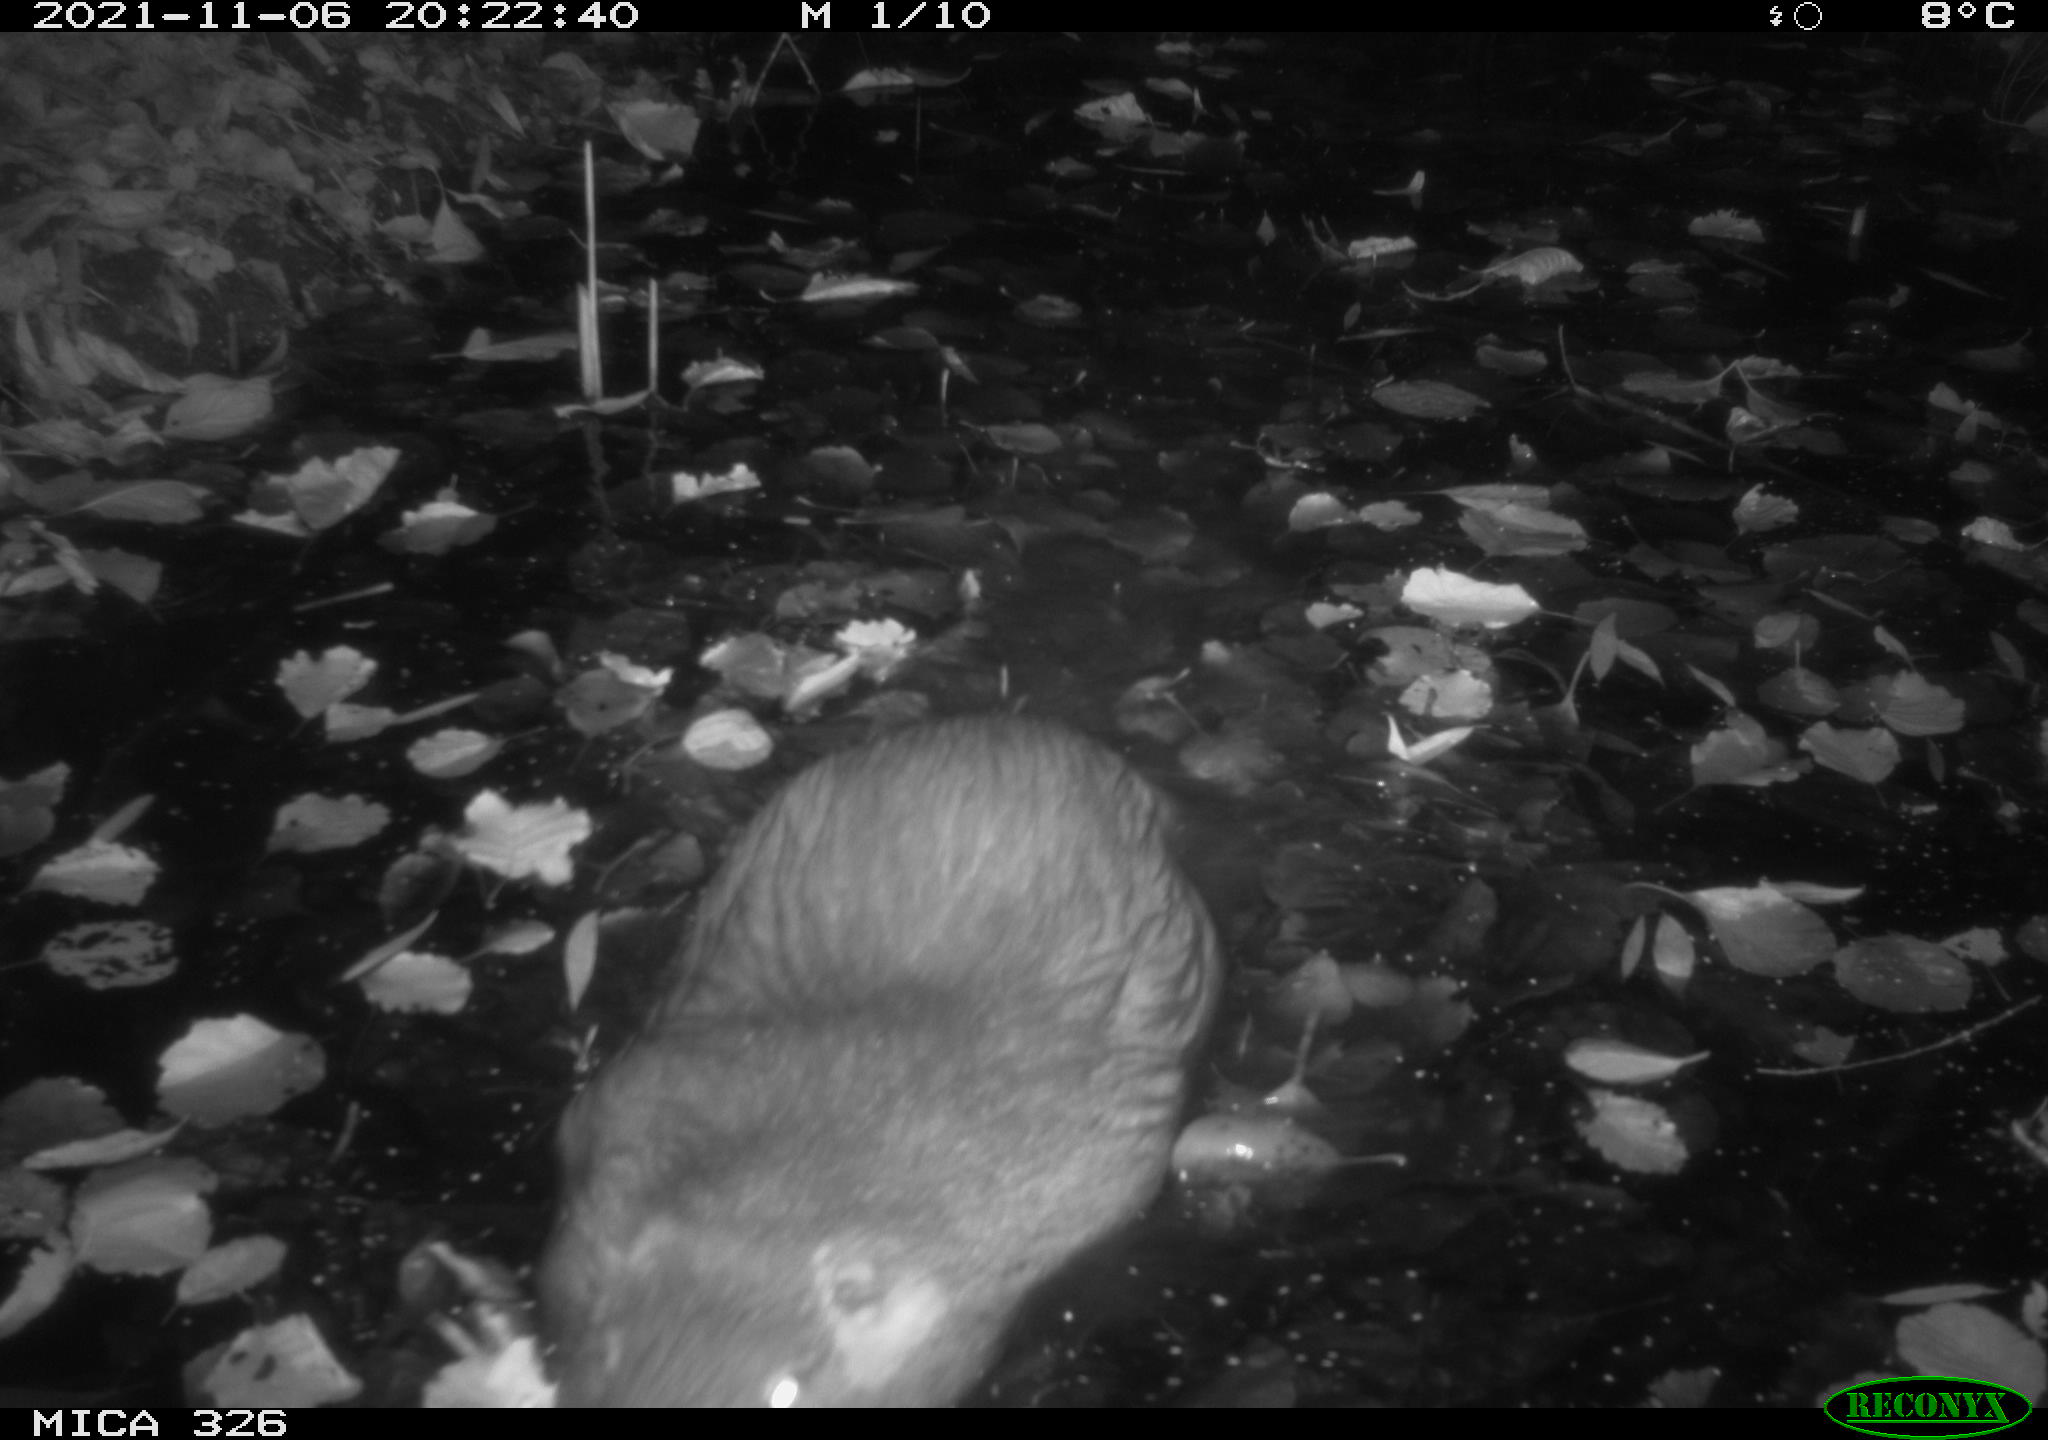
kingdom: Animalia
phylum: Chordata
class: Mammalia
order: Rodentia
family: Myocastoridae
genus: Myocastor
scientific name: Myocastor coypus
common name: Coypu
